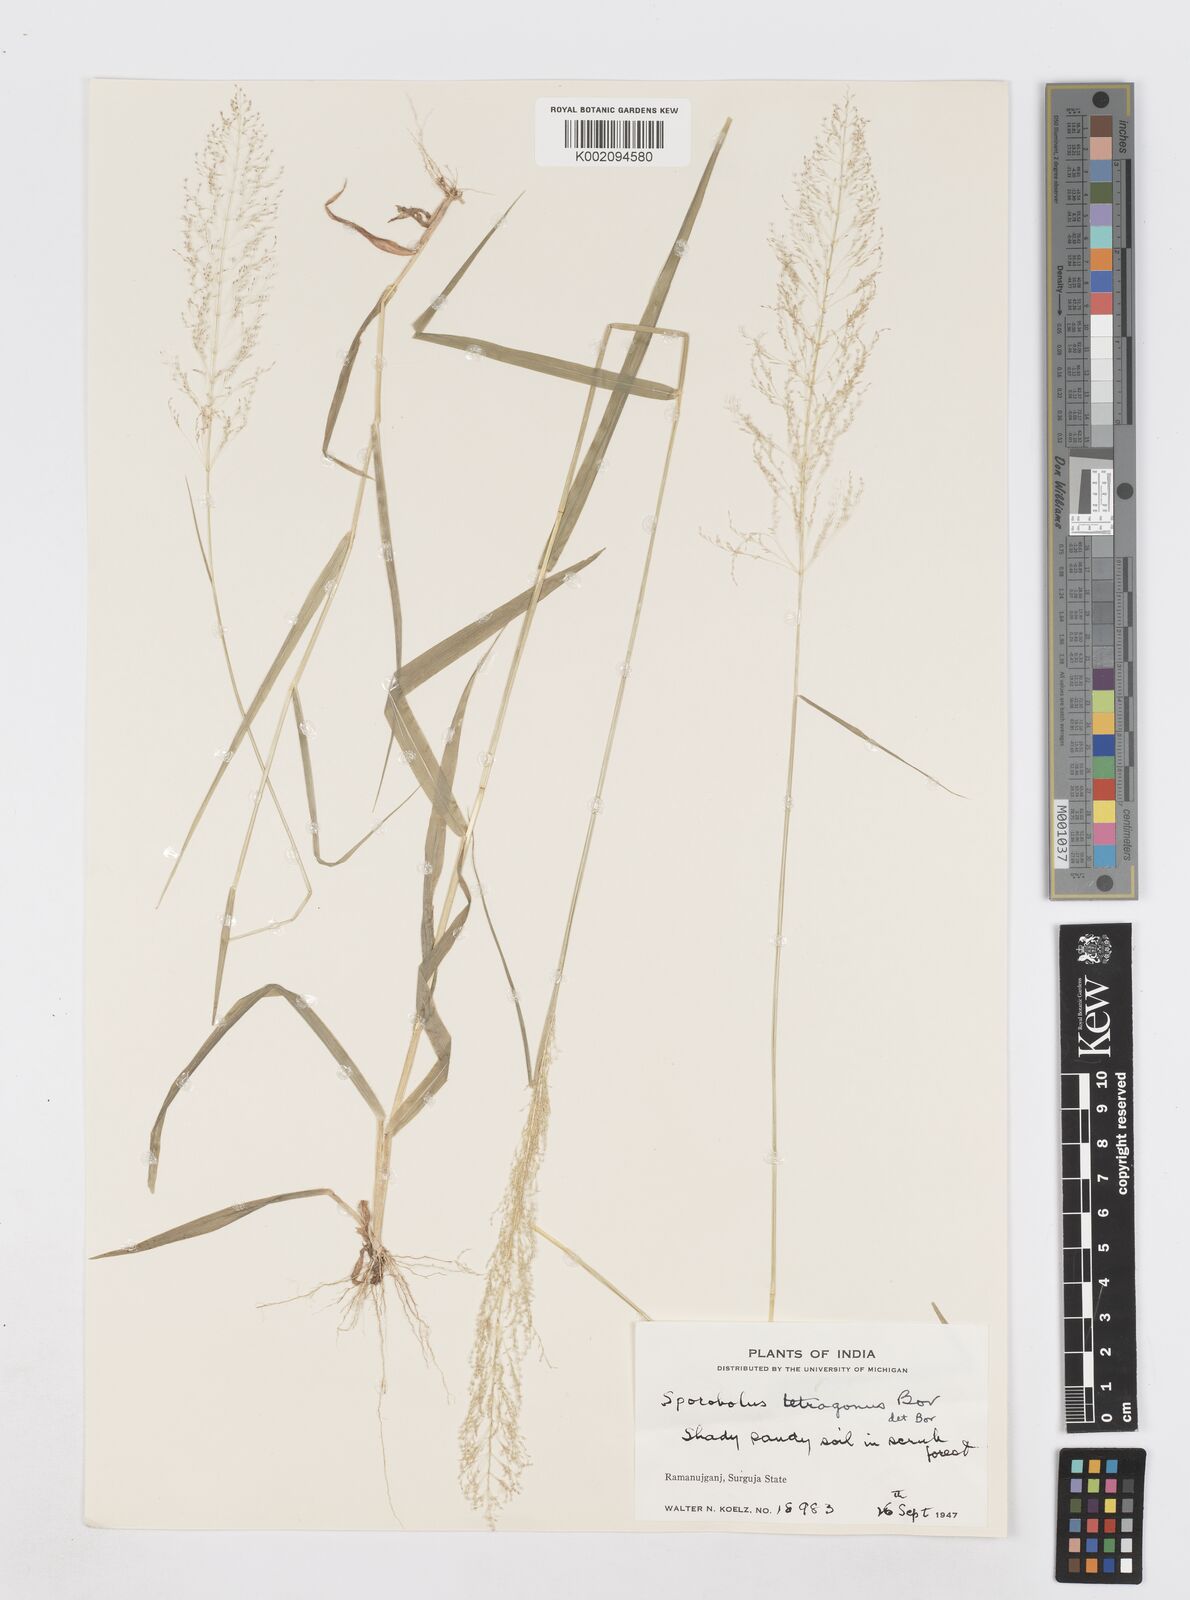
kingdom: Plantae
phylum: Tracheophyta
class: Liliopsida
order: Poales
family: Poaceae
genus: Sporobolus
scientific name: Sporobolus tetragonus
